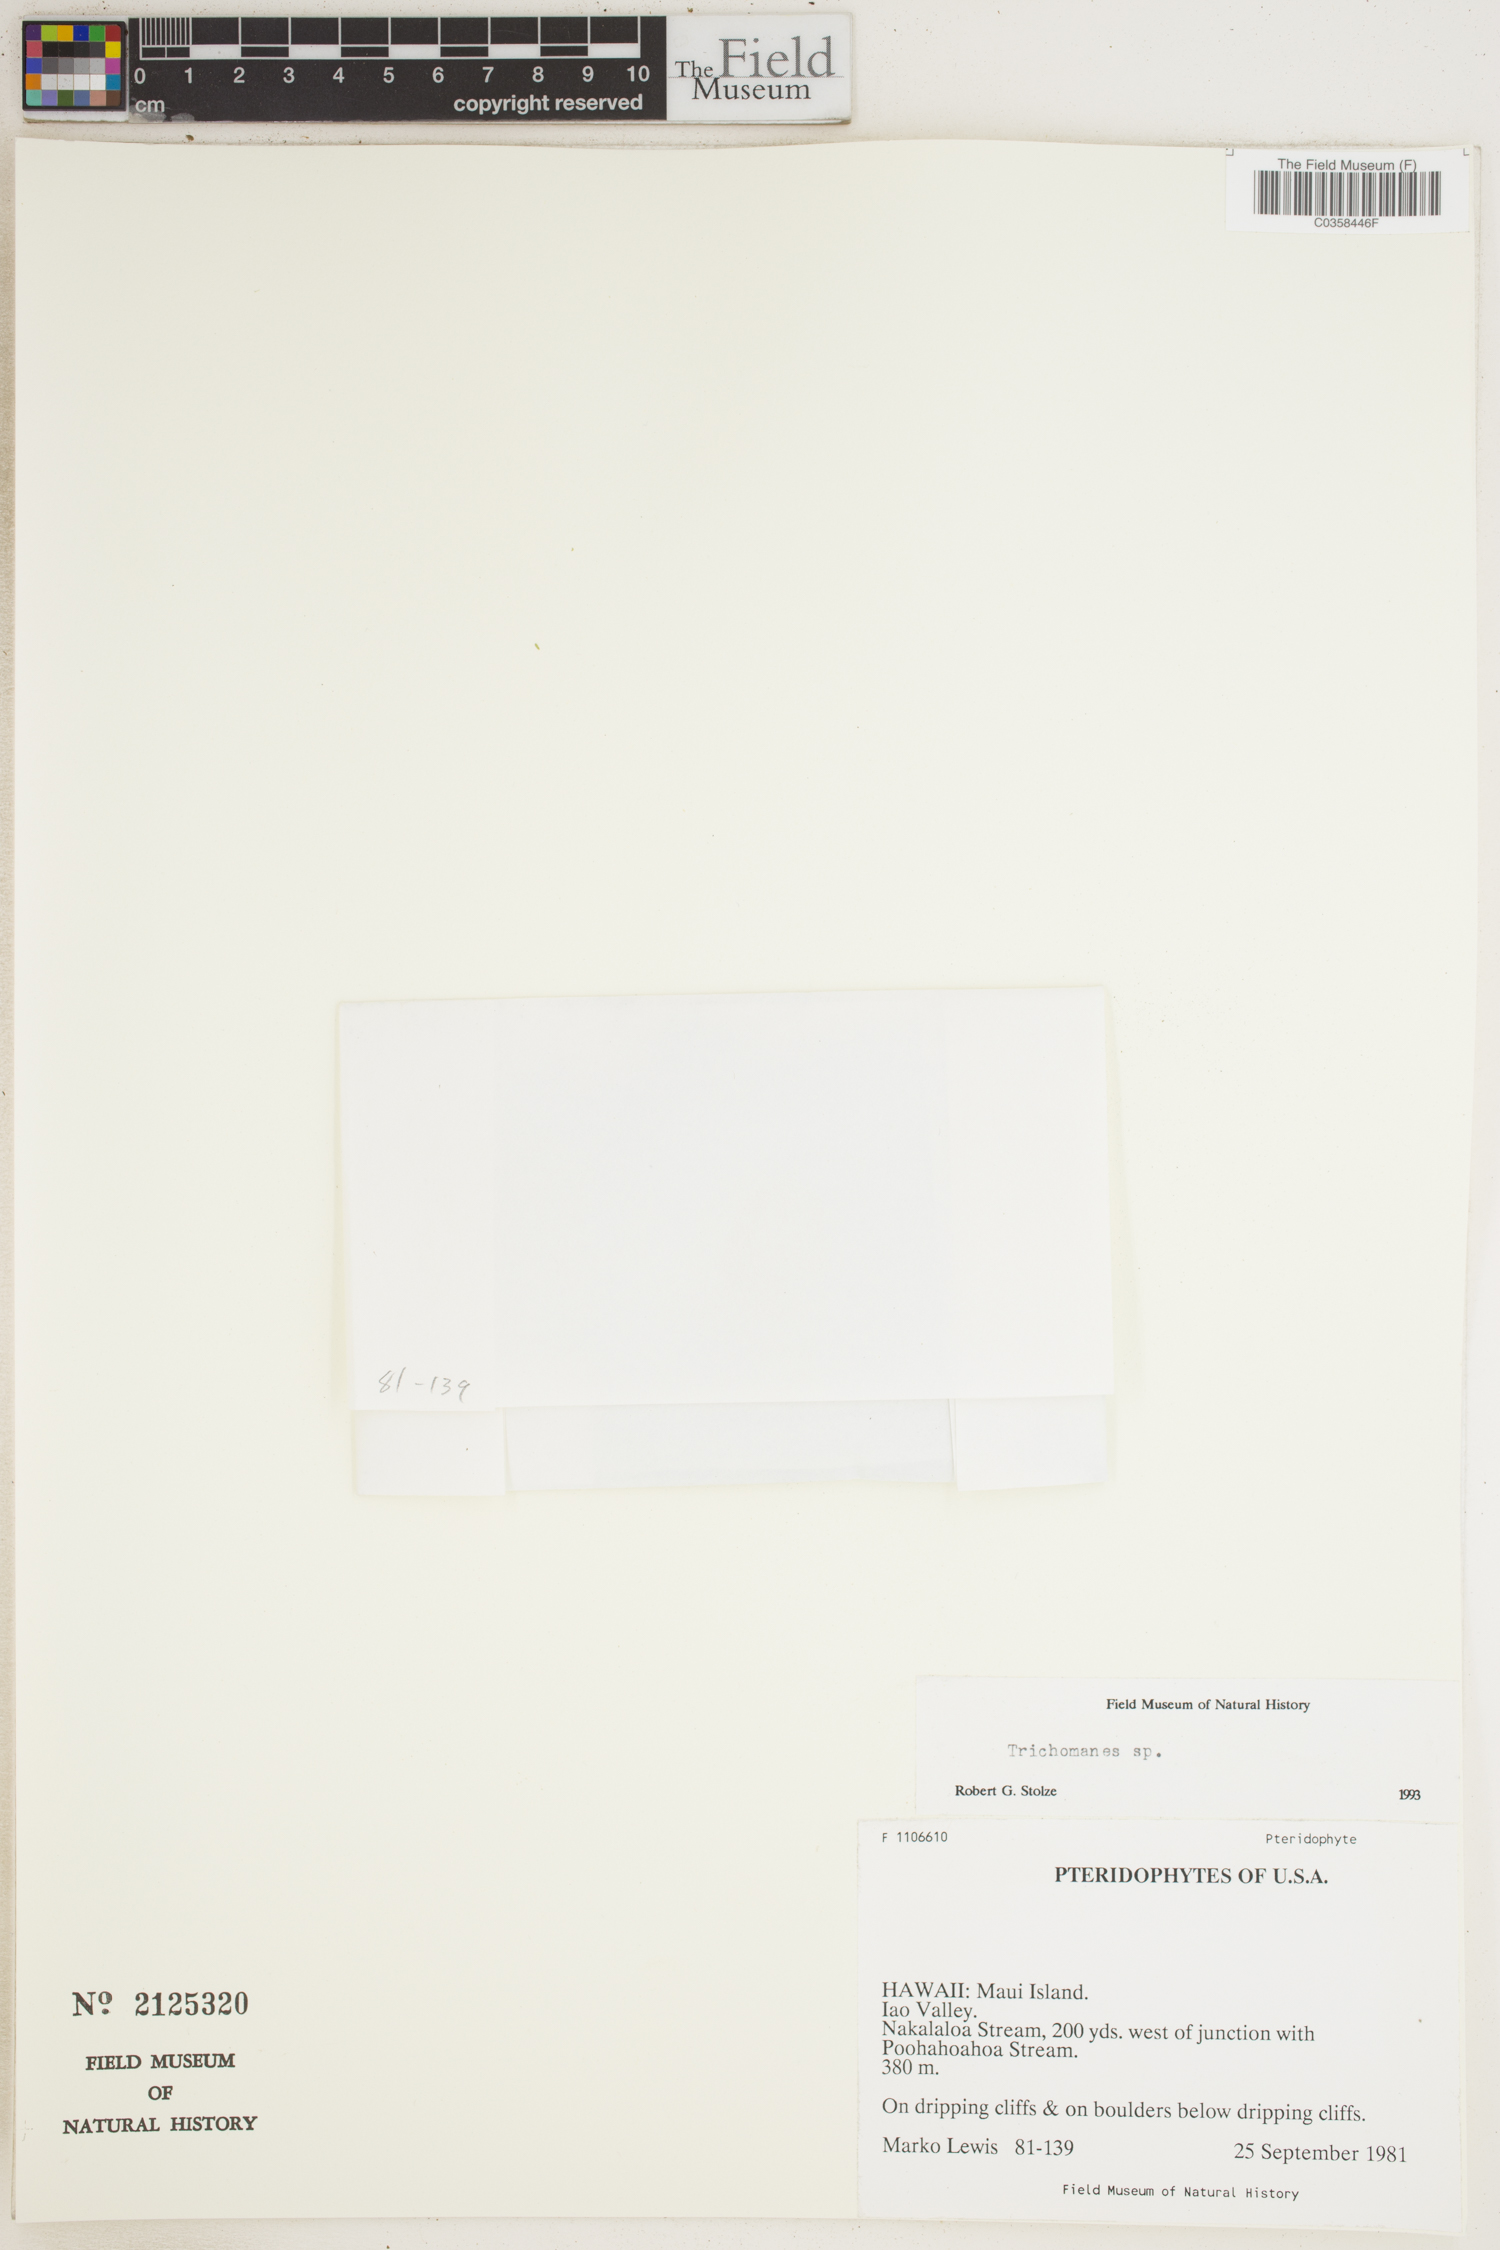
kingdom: Plantae
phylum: Tracheophyta
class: Polypodiopsida
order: Hymenophyllales
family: Hymenophyllaceae
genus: Trichomanes
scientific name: Trichomanes
